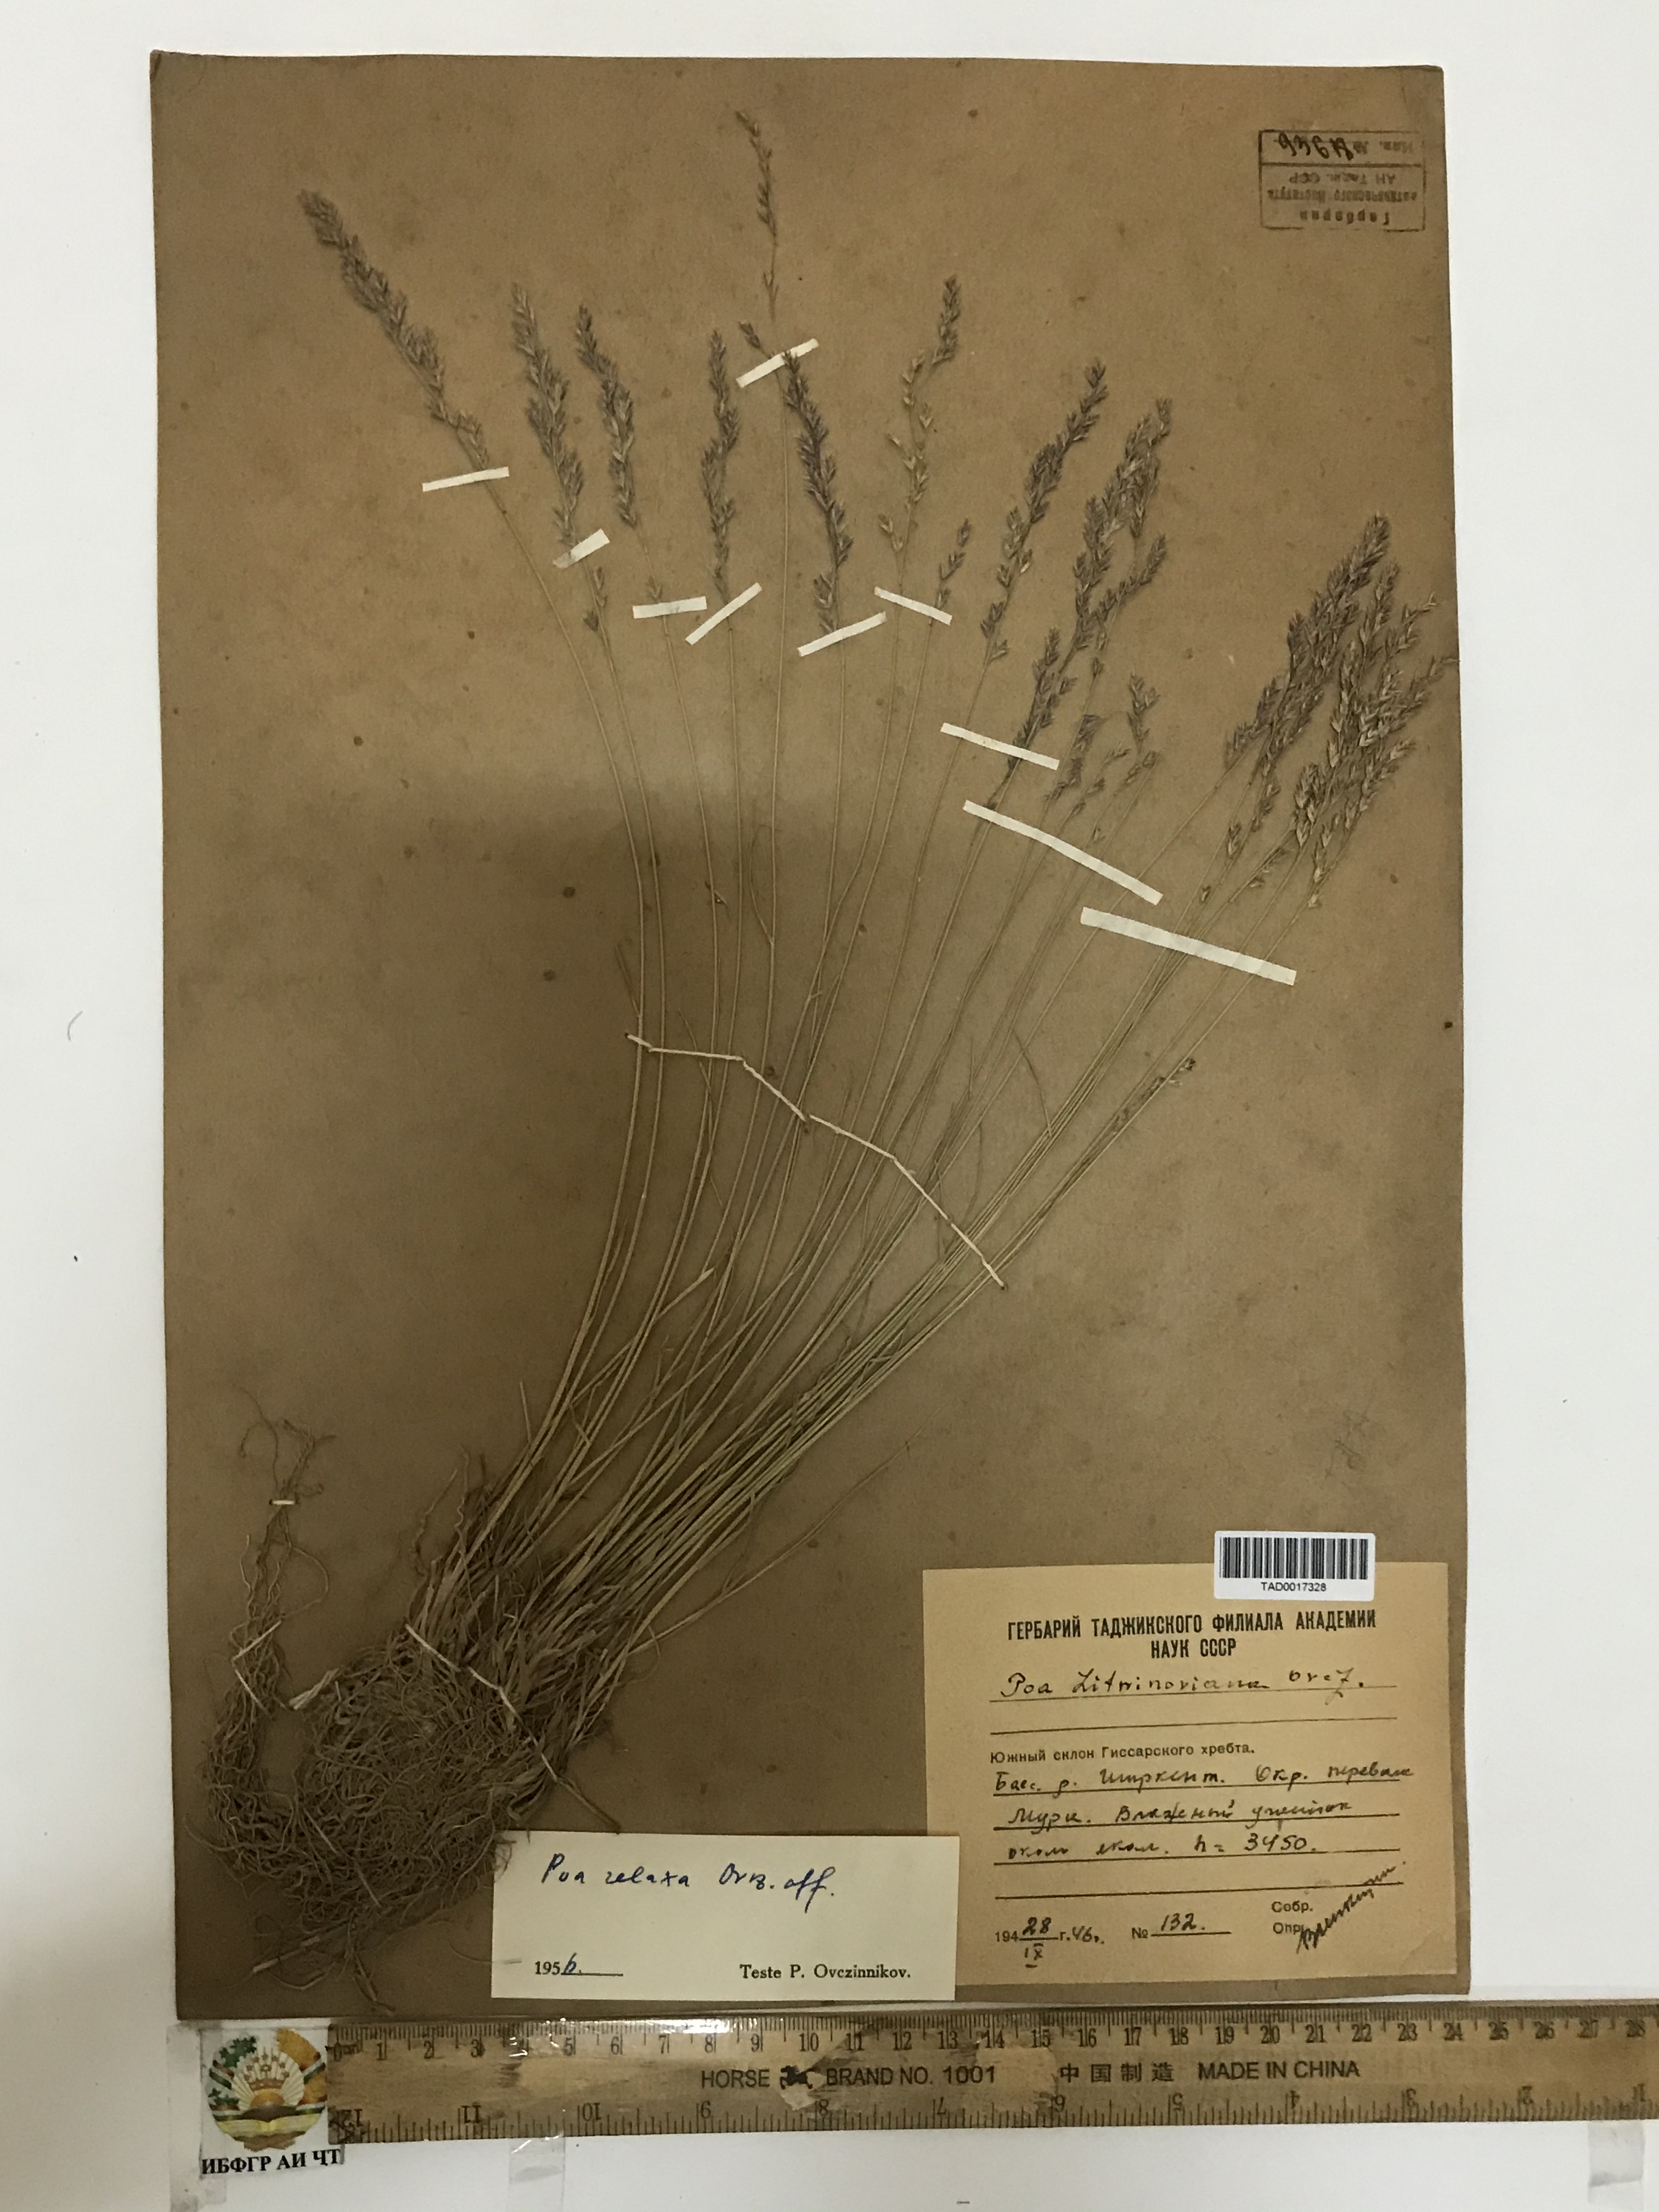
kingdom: Plantae
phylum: Tracheophyta
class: Liliopsida
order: Poales
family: Poaceae
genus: Poa
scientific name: Poa glauca
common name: Glaucous bluegrass
